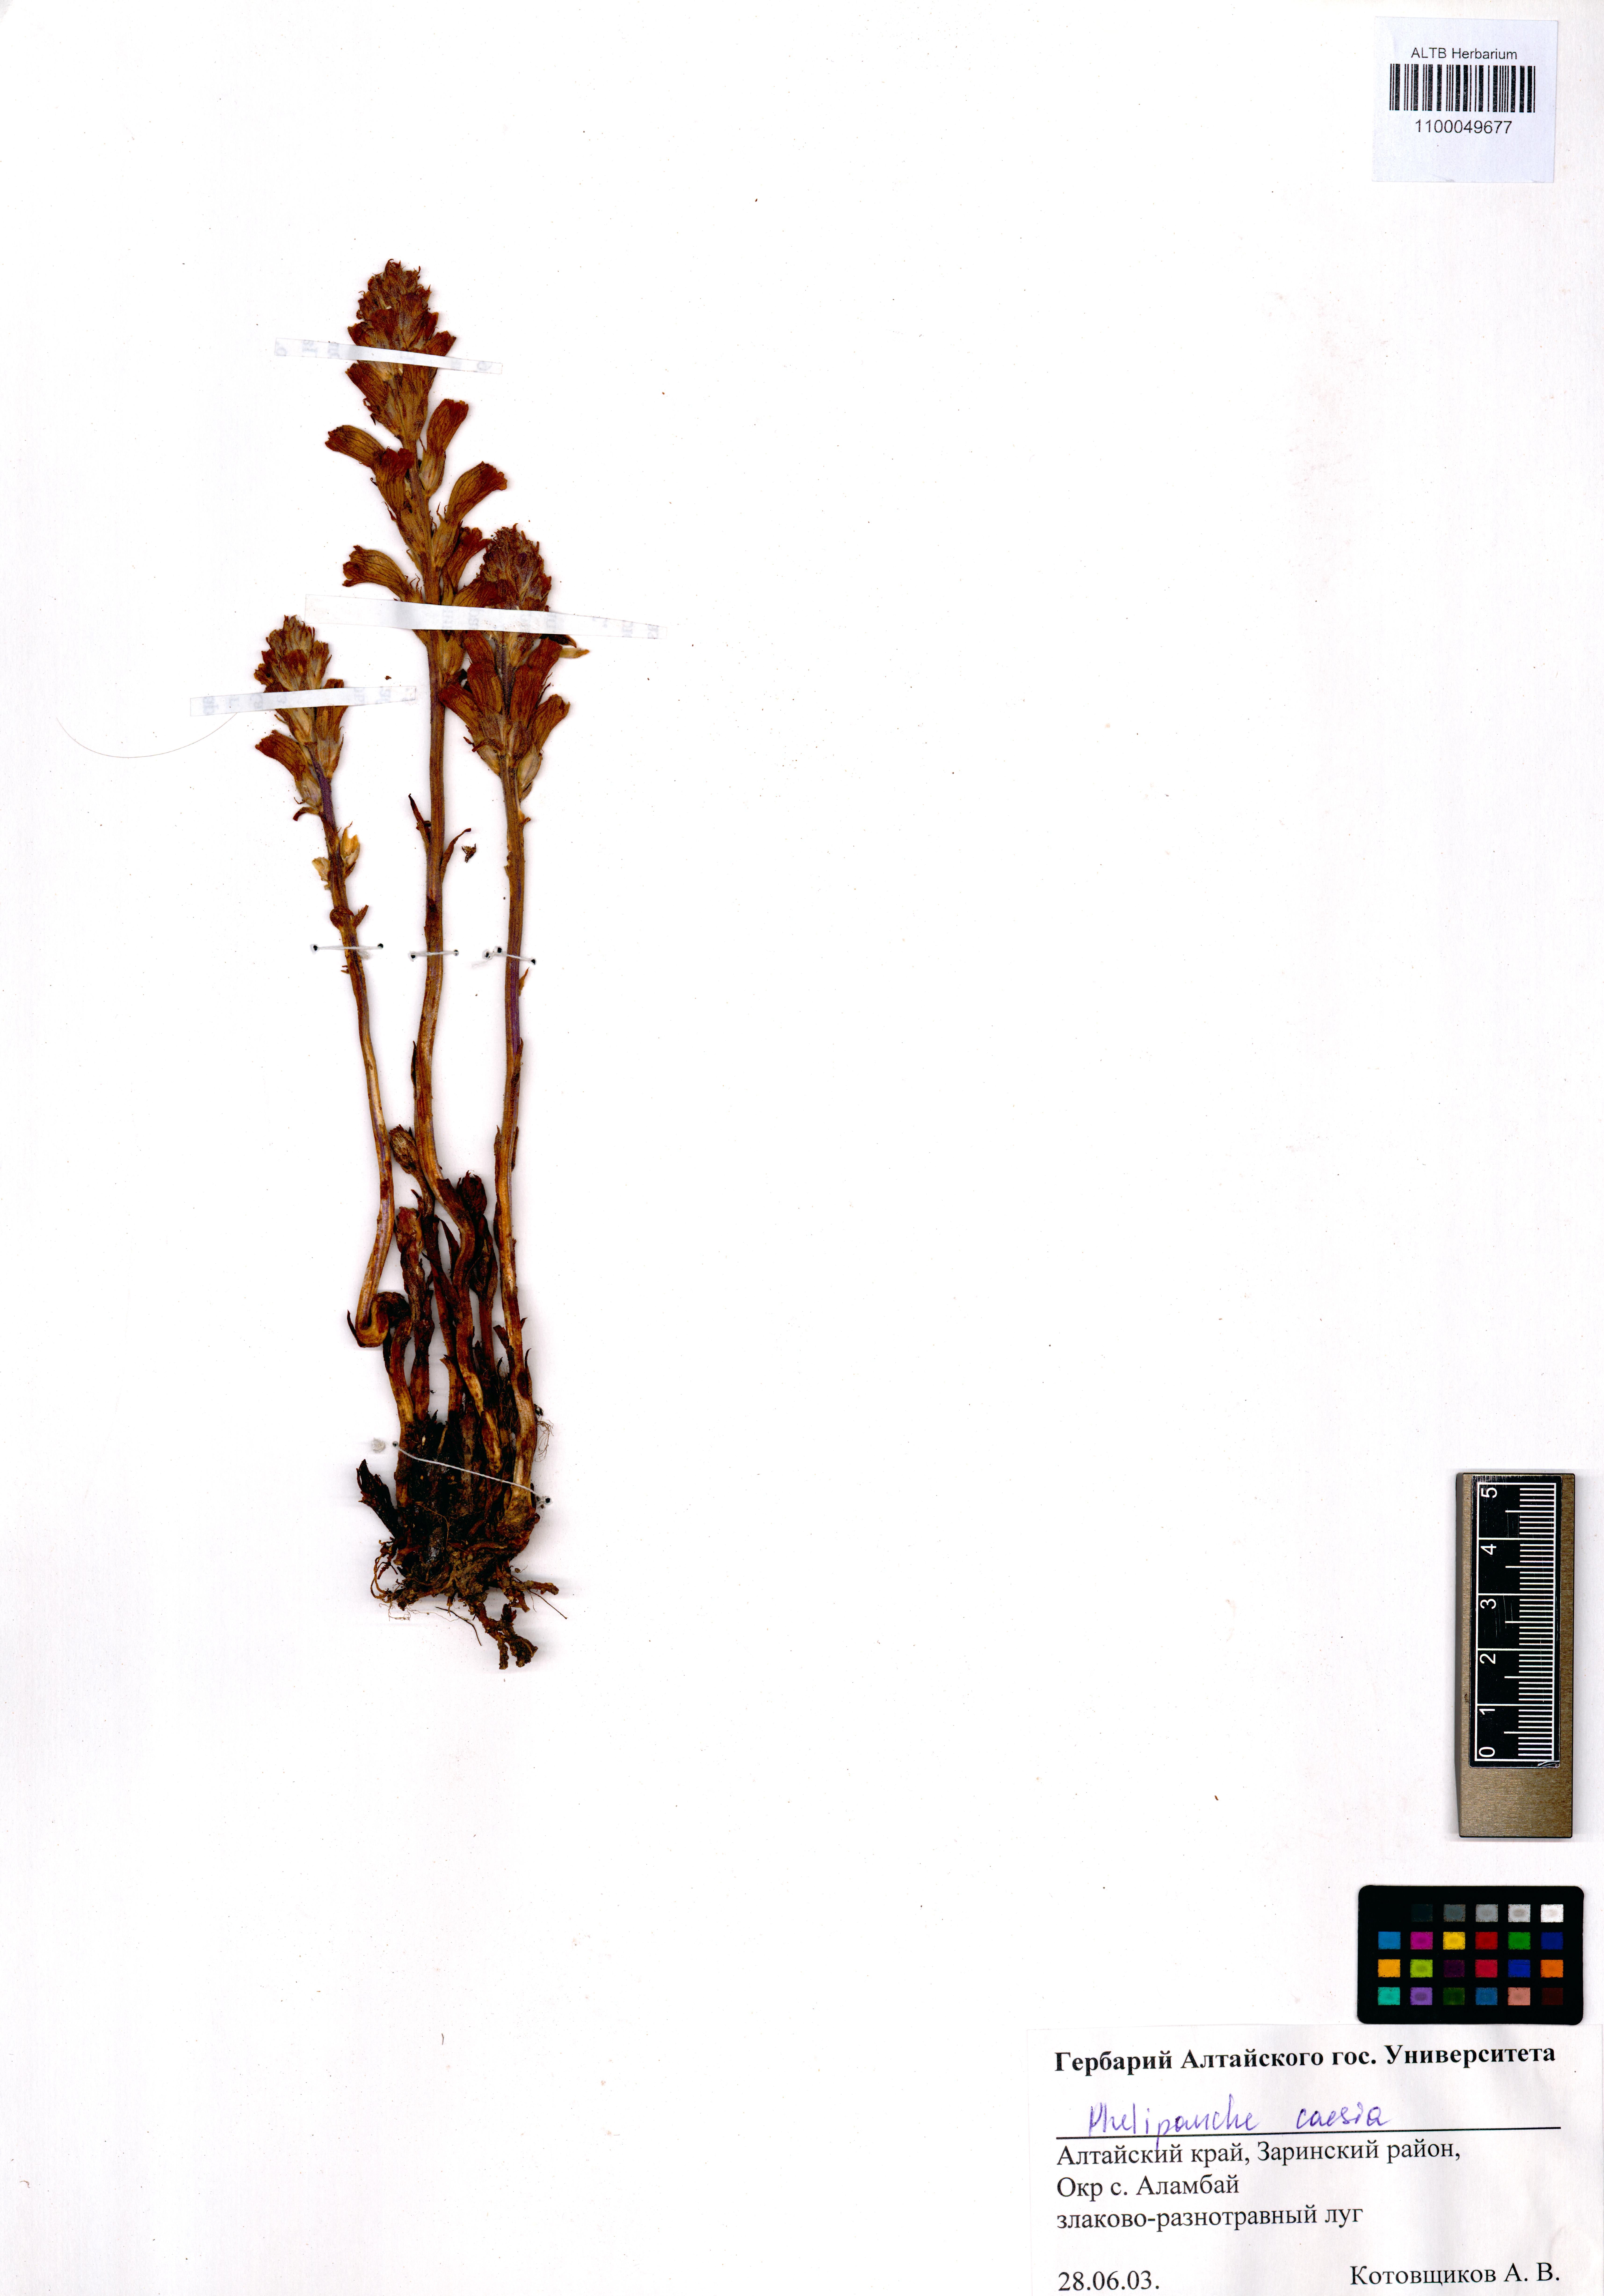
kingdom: Plantae
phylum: Tracheophyta
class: Magnoliopsida
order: Lamiales
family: Orobanchaceae
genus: Phelipanche
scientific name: Phelipanche caesia
